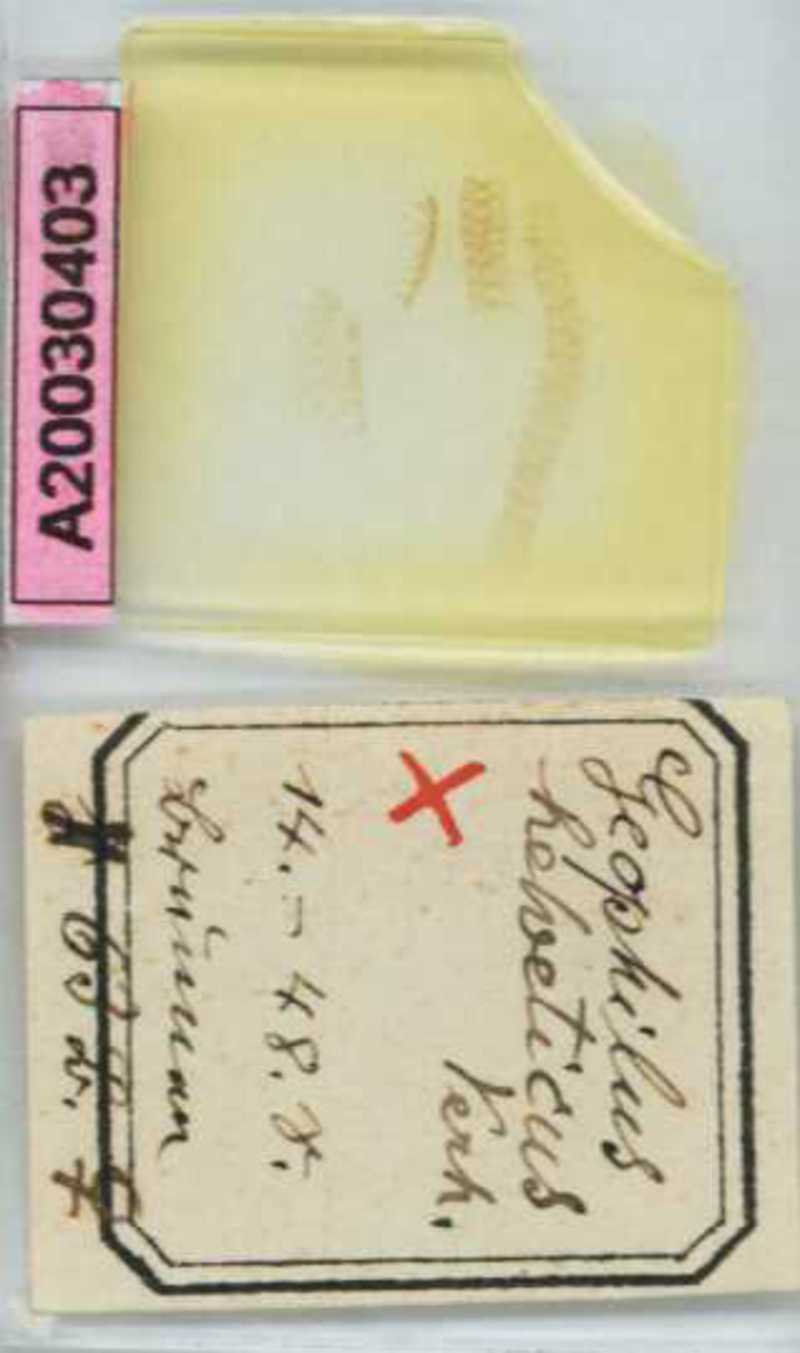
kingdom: Animalia
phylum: Arthropoda
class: Diplopoda
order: Polydesmida
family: Fuhrmannodesmidae
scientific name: Fuhrmannodesmidae
